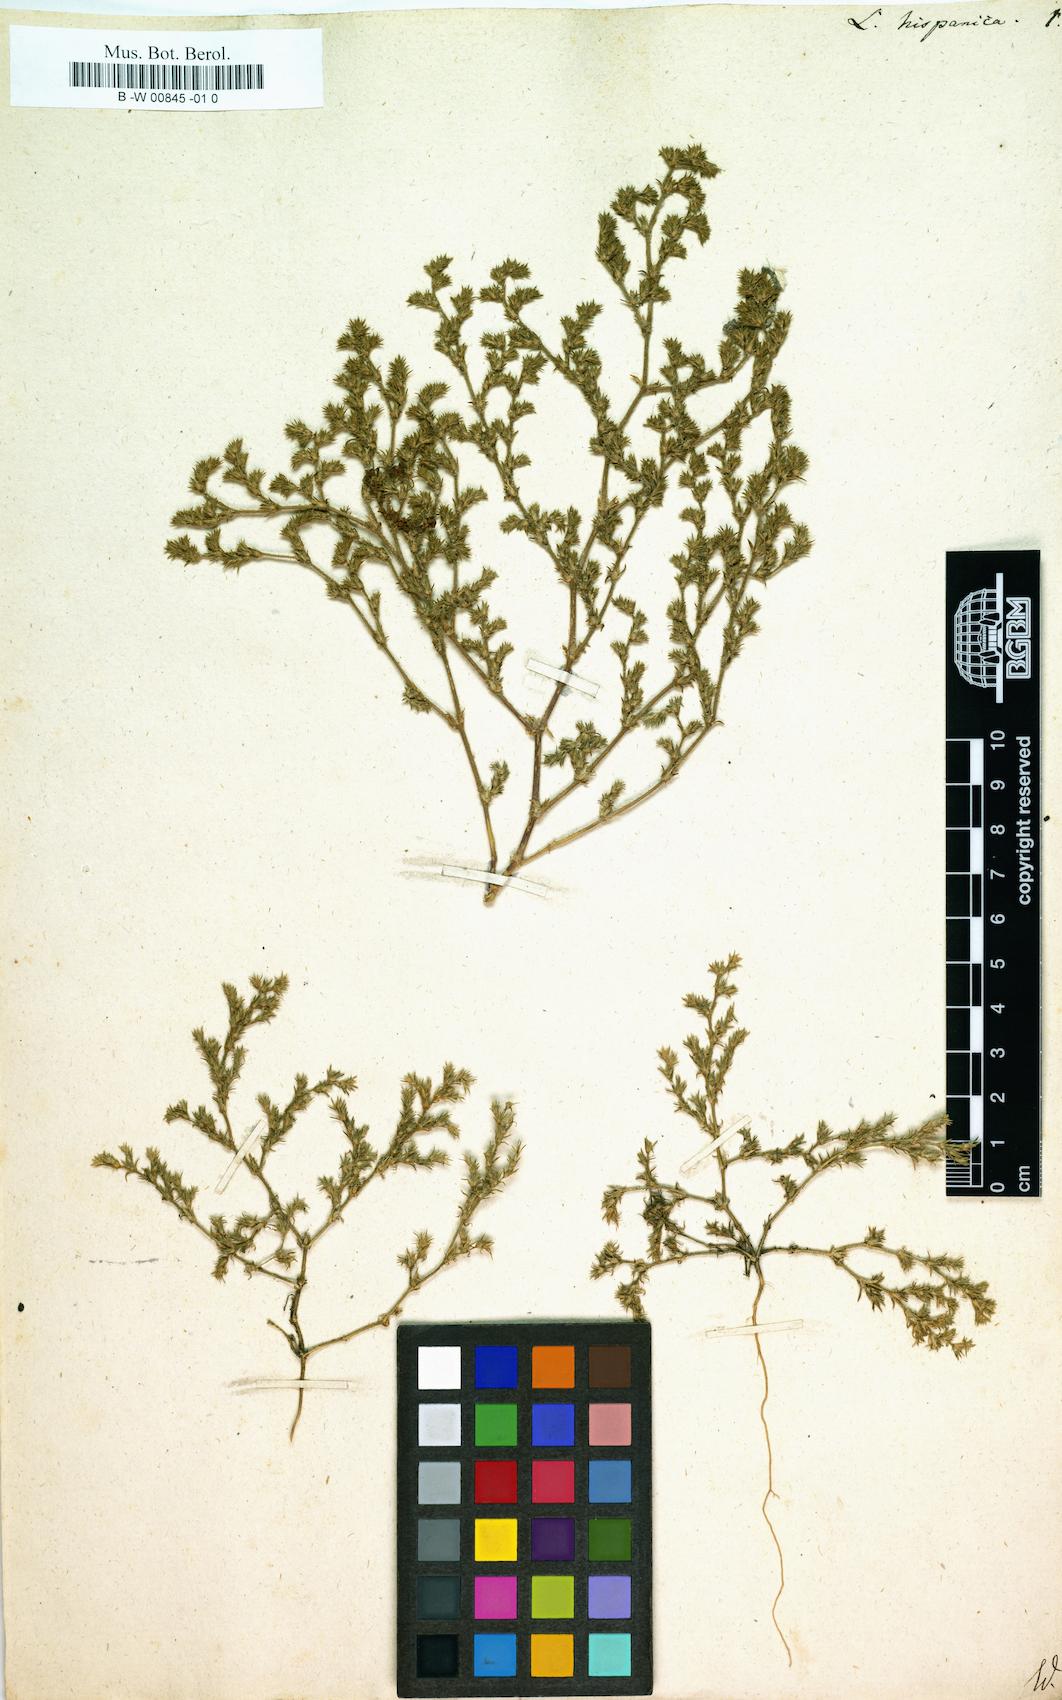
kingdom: Plantae
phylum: Tracheophyta
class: Magnoliopsida
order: Caryophyllales
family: Caryophyllaceae
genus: Loeflingia
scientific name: Loeflingia hispanica
